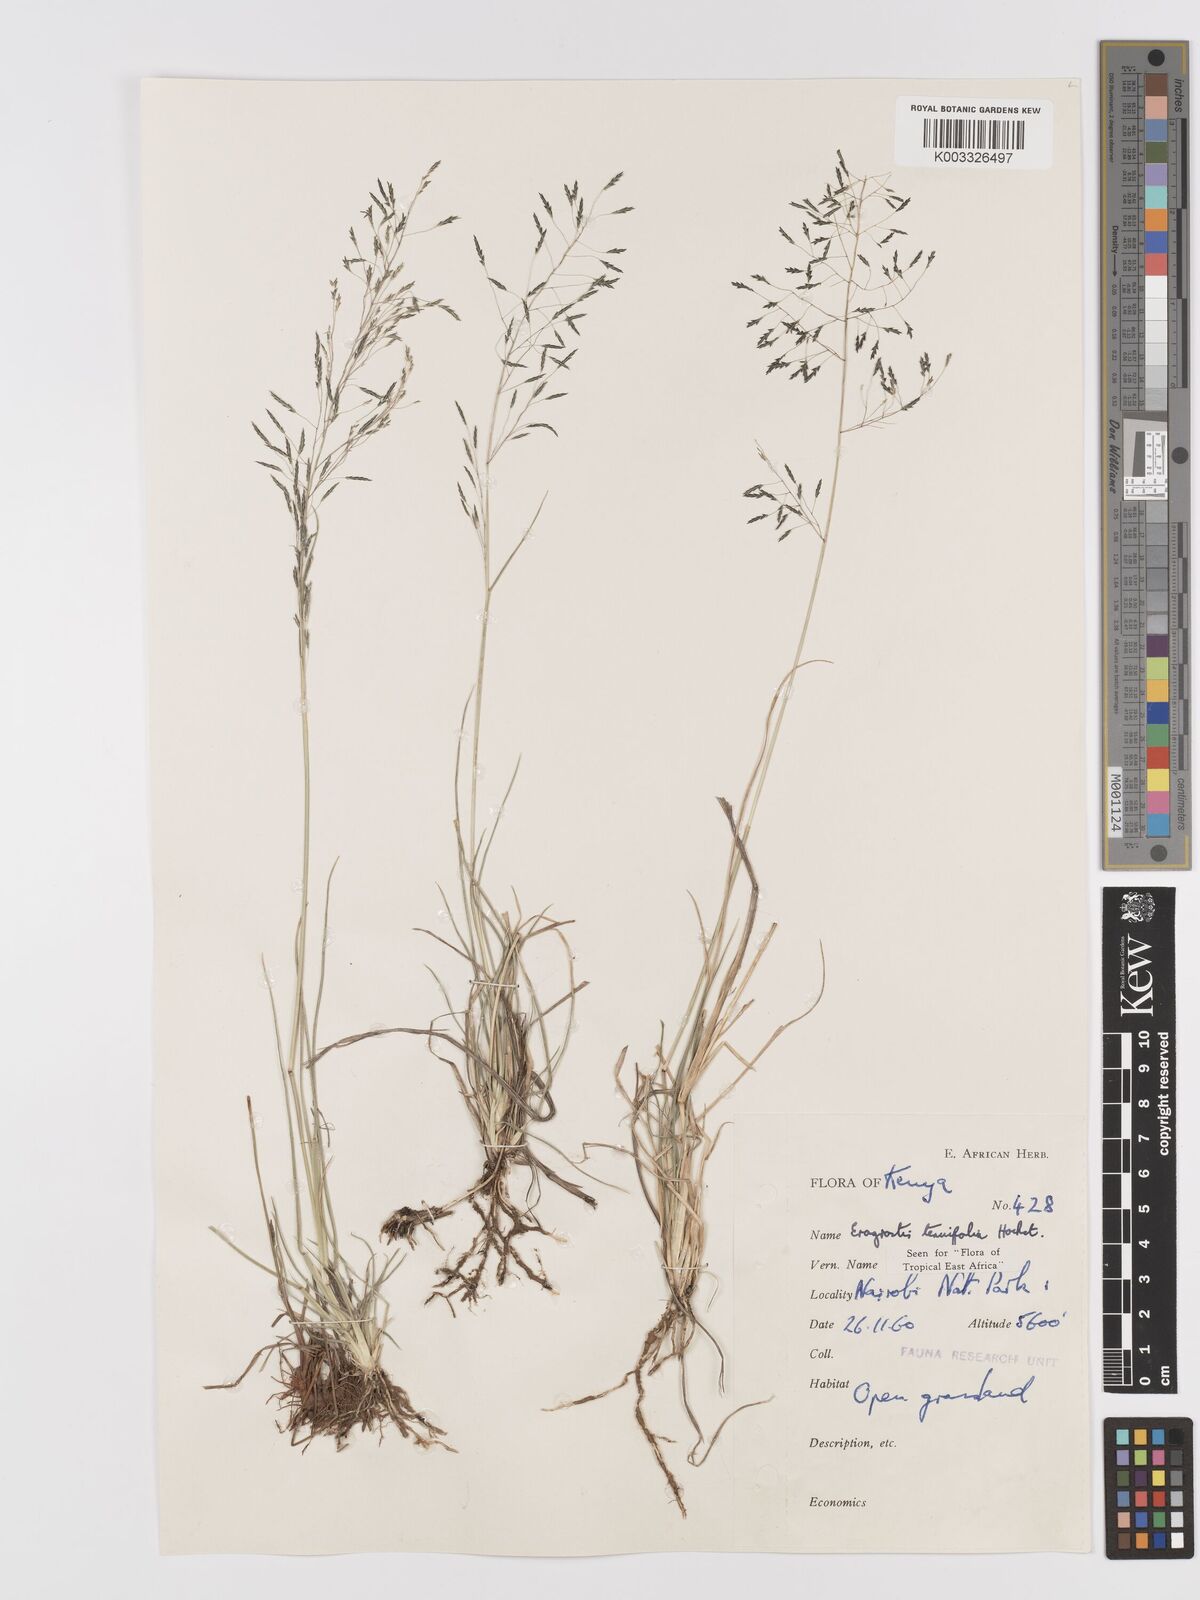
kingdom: Plantae
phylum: Tracheophyta
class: Liliopsida
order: Poales
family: Poaceae
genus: Eragrostis
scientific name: Eragrostis tenuifolia
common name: Elastic grass
